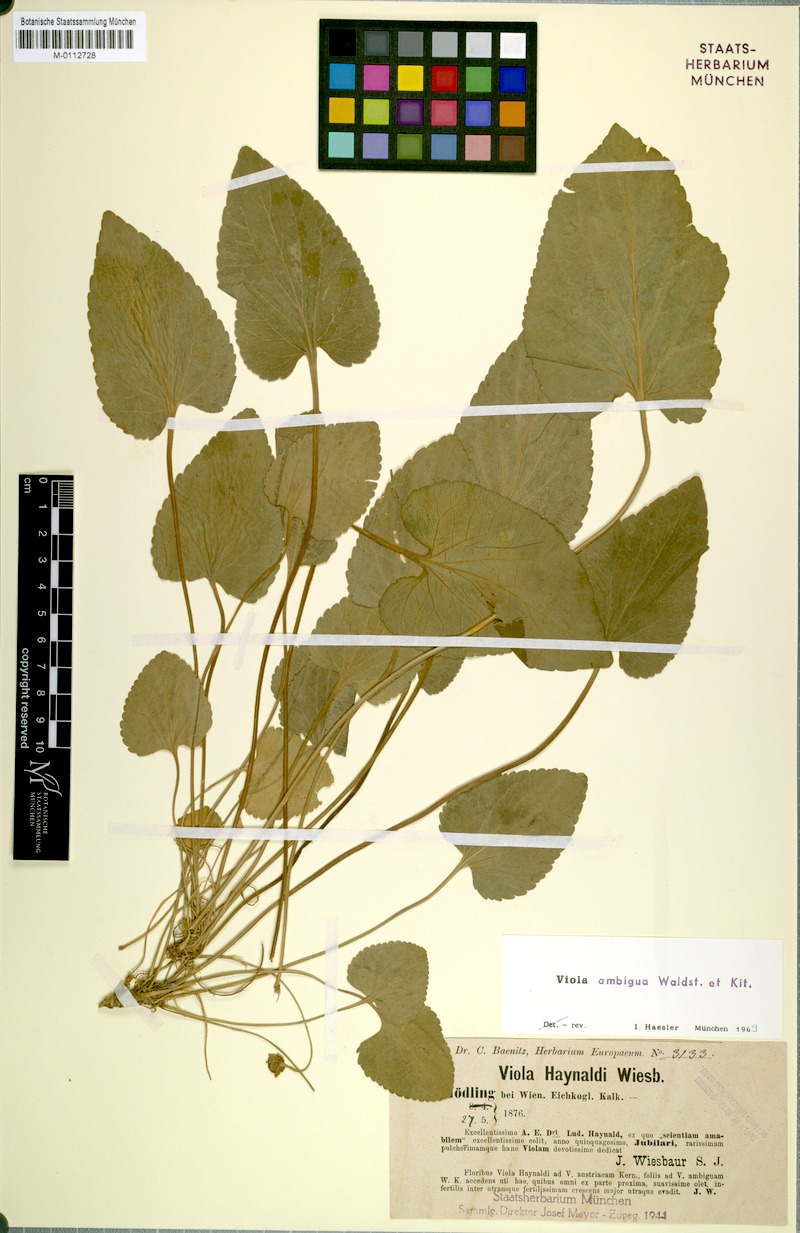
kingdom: Plantae
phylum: Tracheophyta
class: Magnoliopsida
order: Malpighiales
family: Violaceae
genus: Viola
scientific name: Viola ambigua
